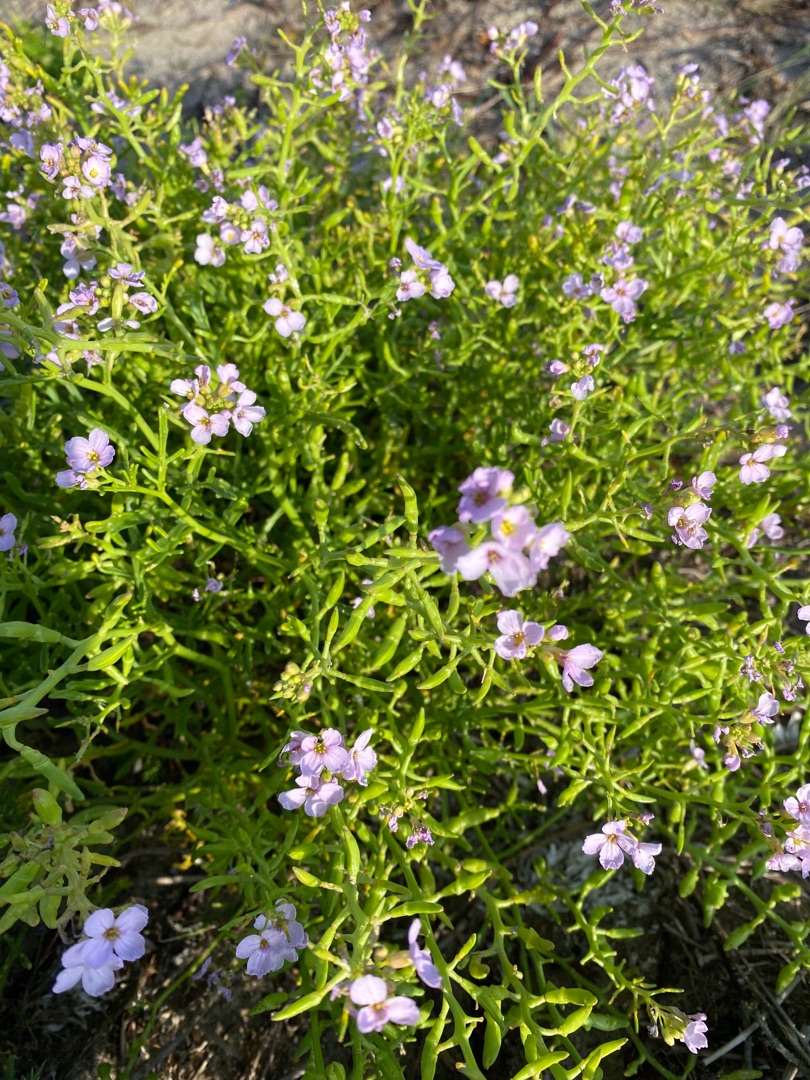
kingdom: Plantae
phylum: Tracheophyta
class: Magnoliopsida
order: Brassicales
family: Brassicaceae
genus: Cakile
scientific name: Cakile maritima
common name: Strandsennep
